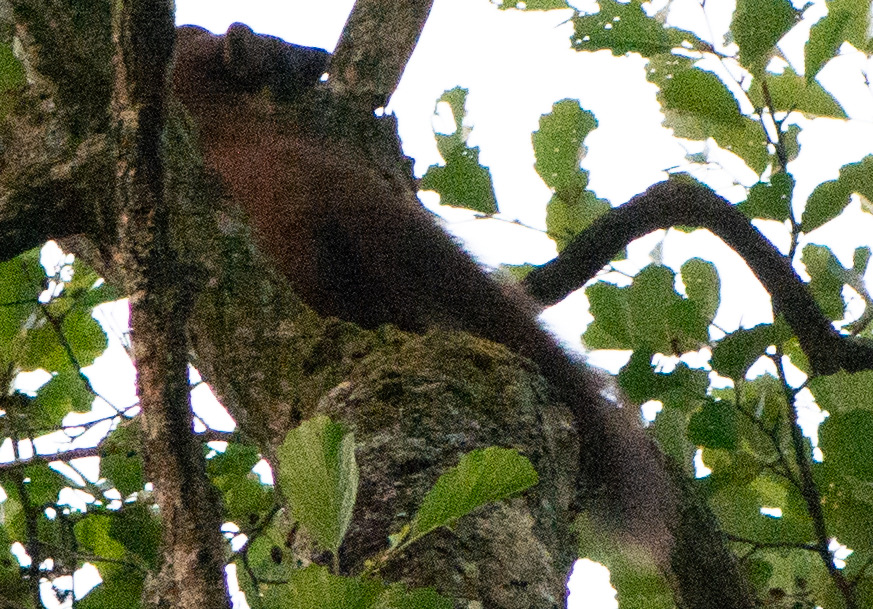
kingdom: Animalia
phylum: Chordata
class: Mammalia
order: Carnivora
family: Mustelidae
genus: Martes
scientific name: Martes martes
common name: Skovmår
